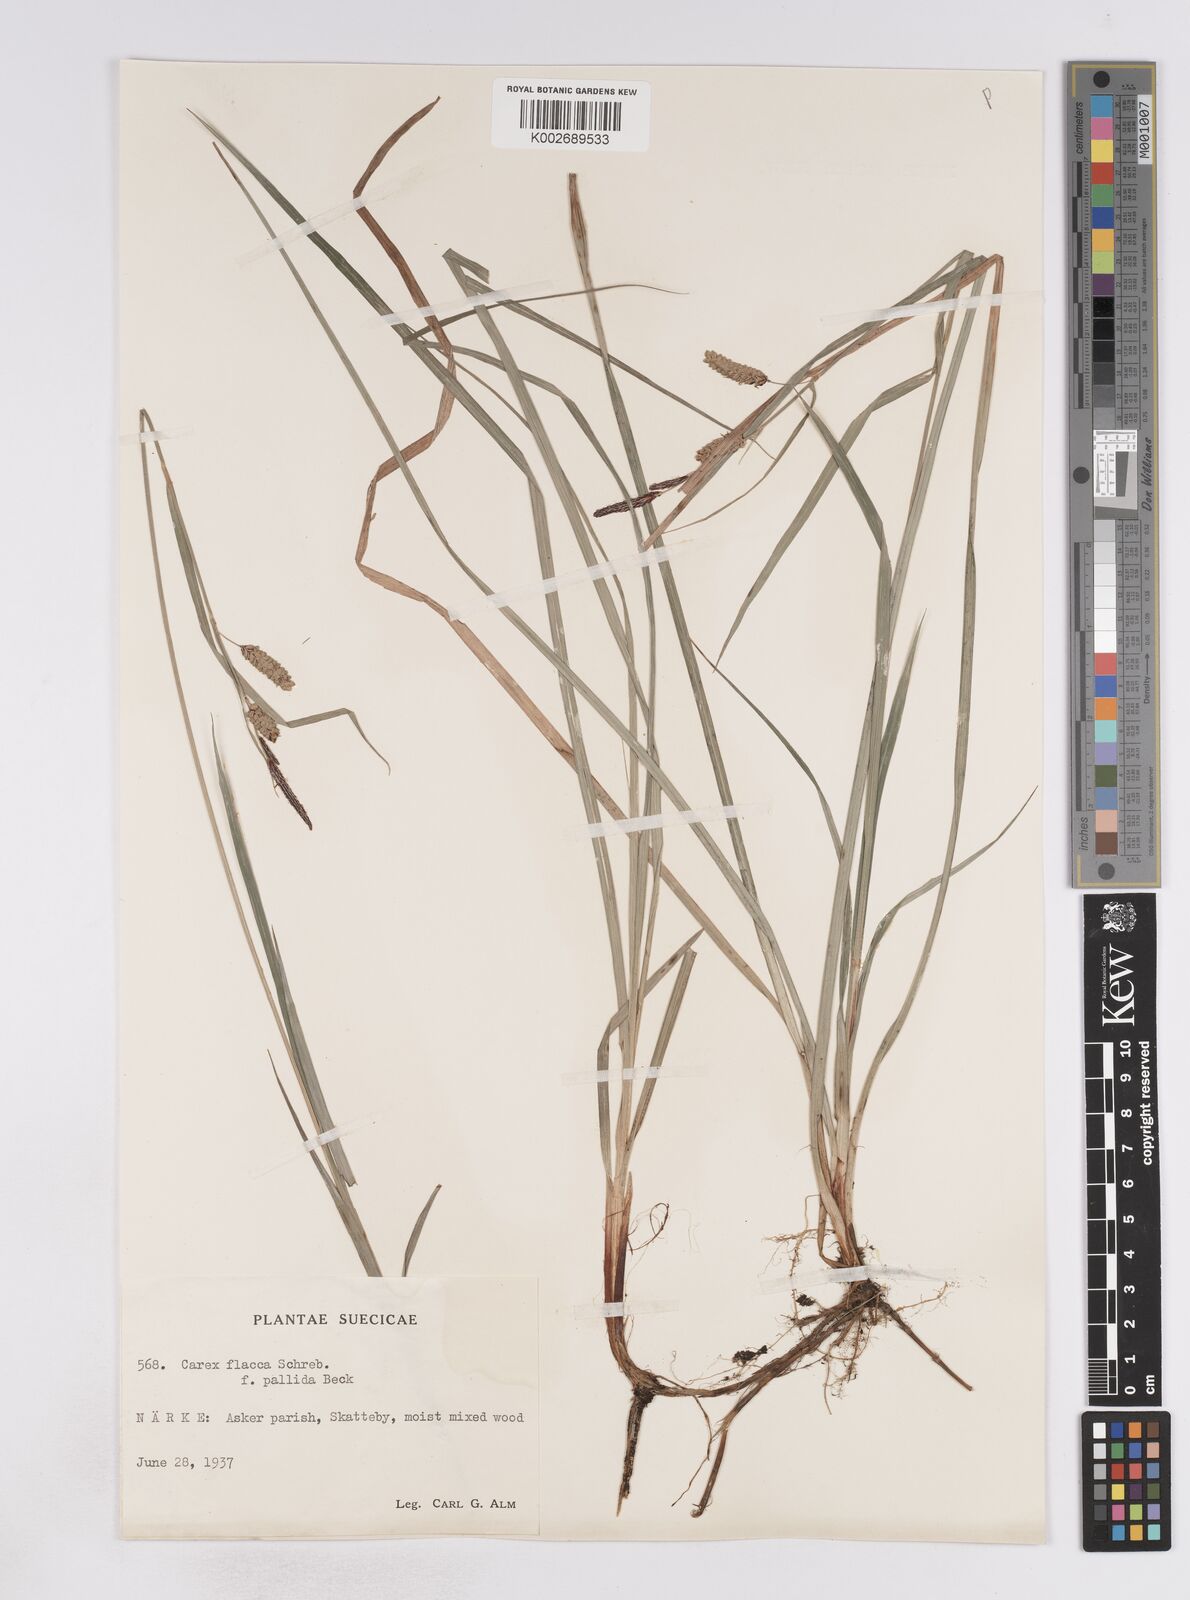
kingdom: Plantae
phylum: Tracheophyta
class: Liliopsida
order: Poales
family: Cyperaceae
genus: Carex
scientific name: Carex flacca
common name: Glaucous sedge
